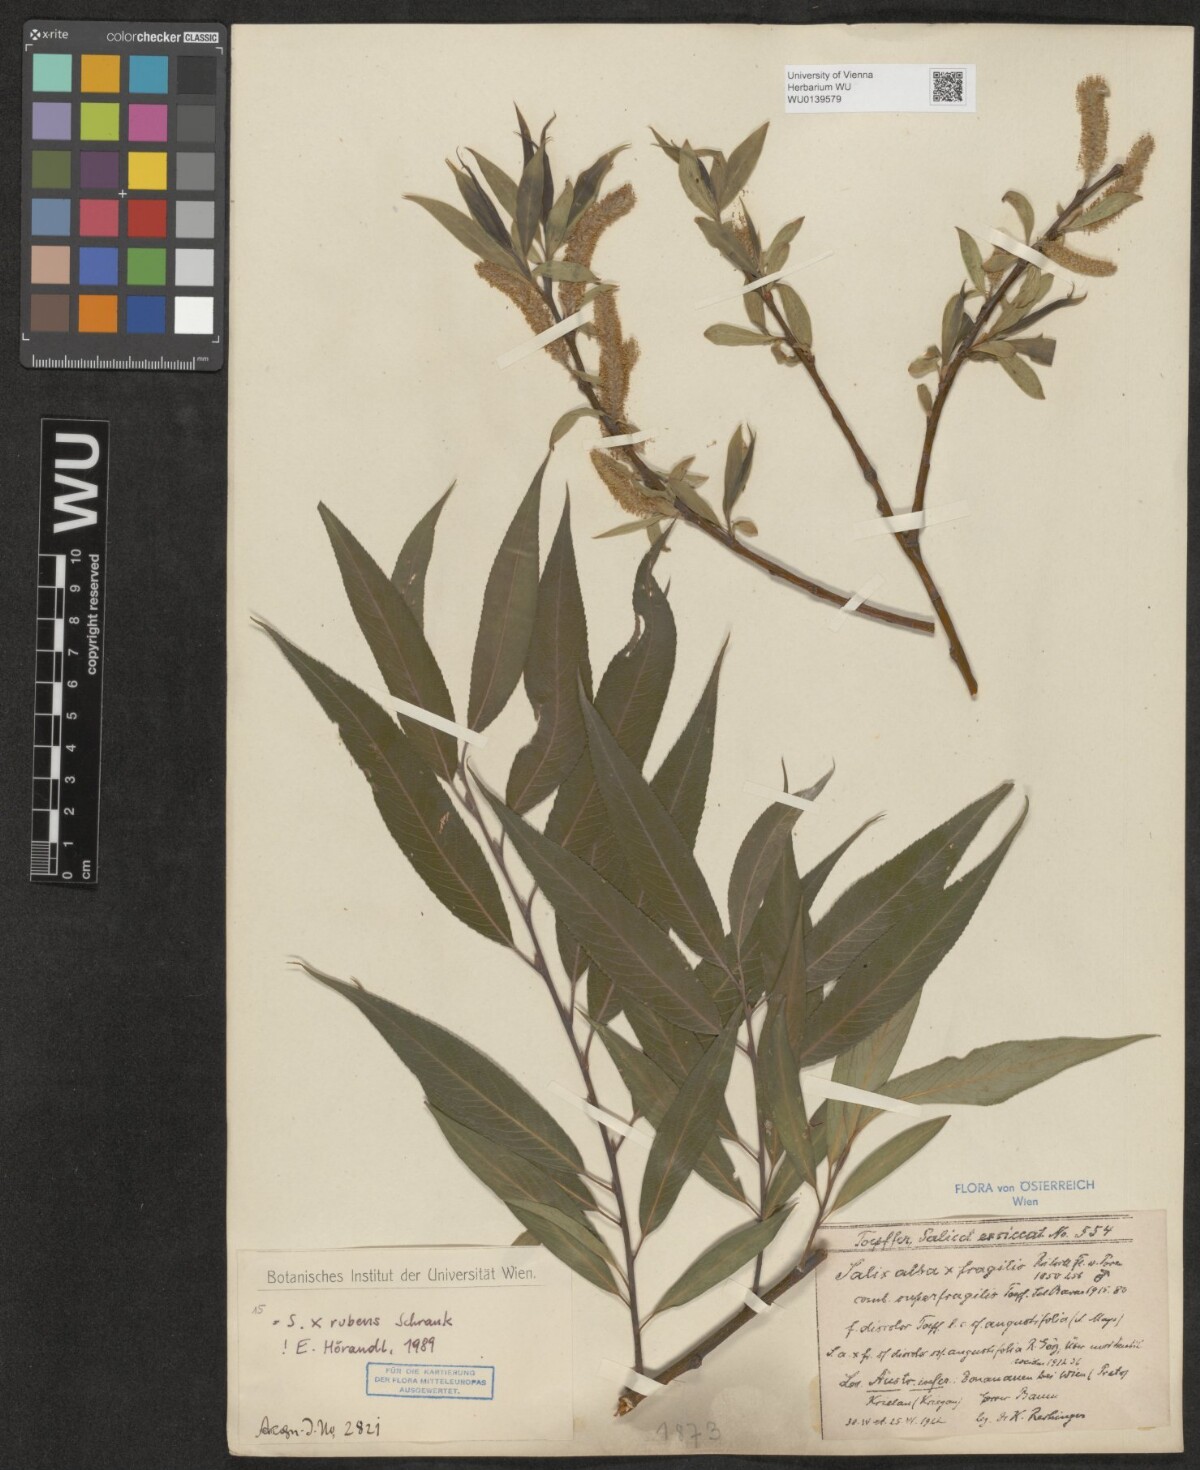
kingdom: Plantae
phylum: Tracheophyta
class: Magnoliopsida
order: Malpighiales
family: Salicaceae
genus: Salix
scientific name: Salix rubens
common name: Hybrid crack willow
